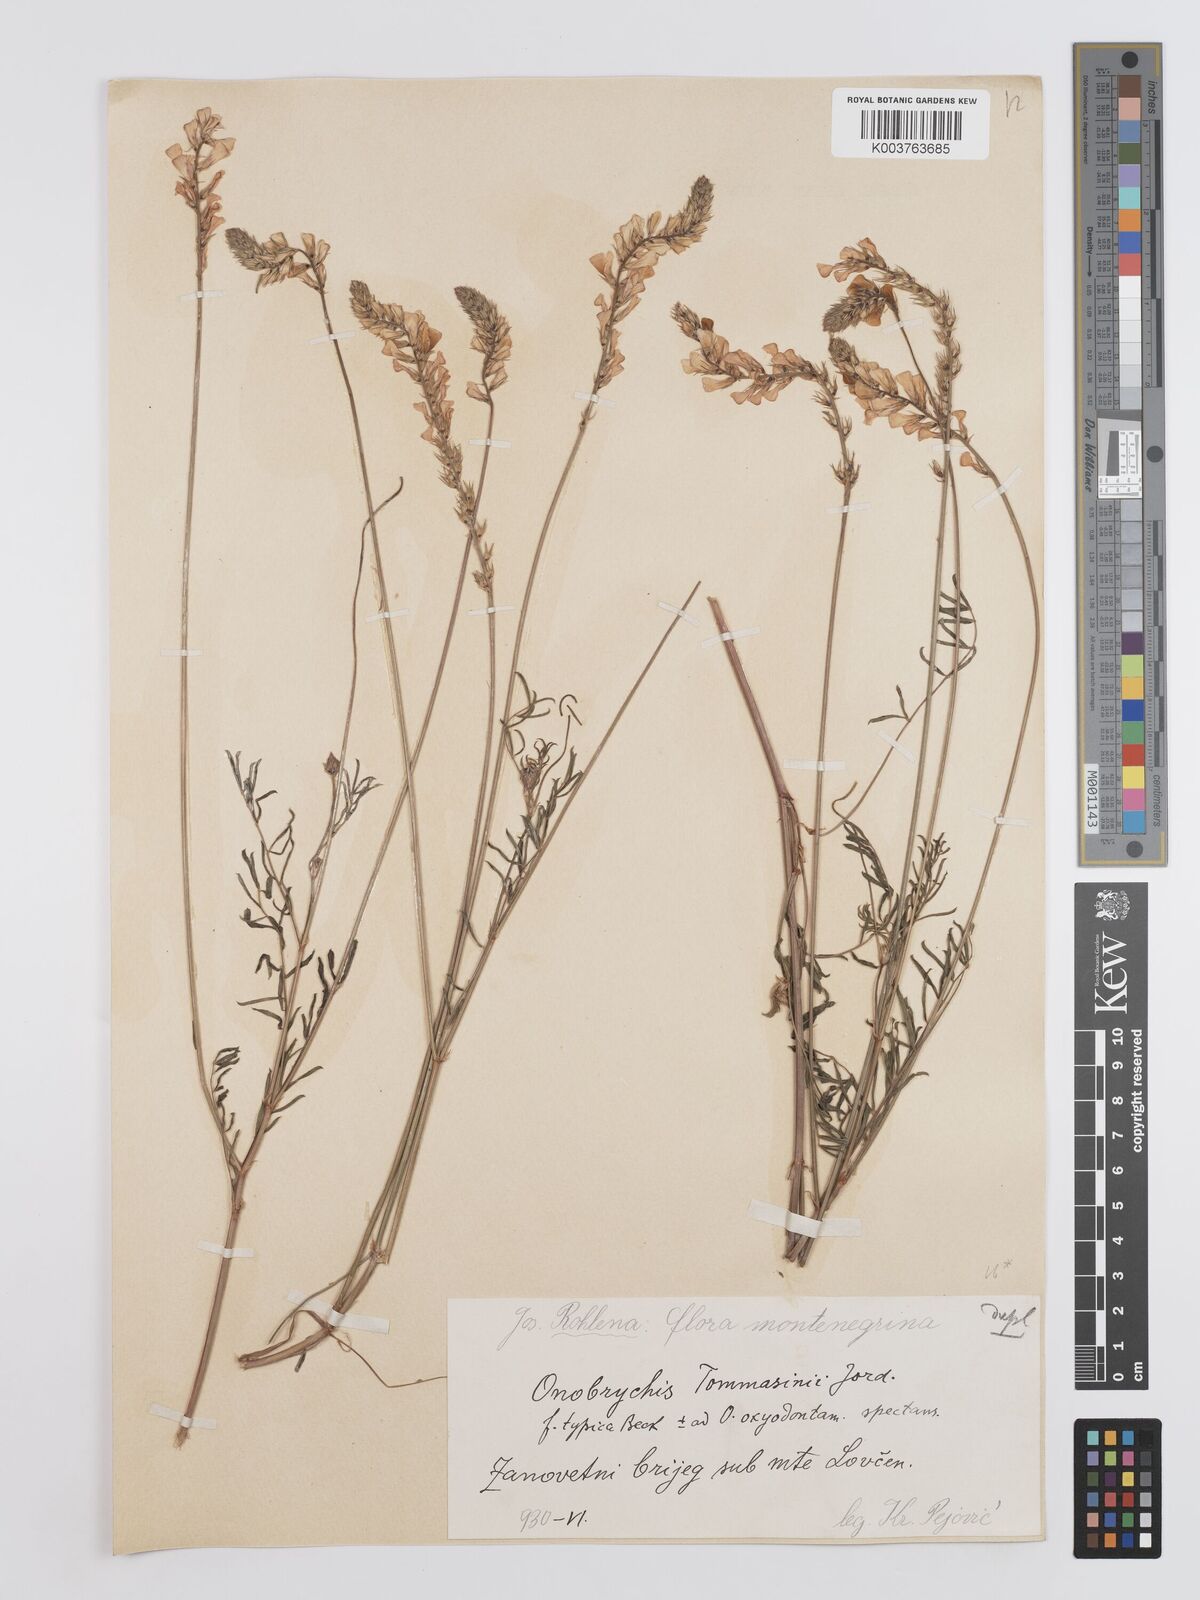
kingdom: Plantae
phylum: Tracheophyta
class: Magnoliopsida
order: Fabales
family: Fabaceae
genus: Onobrychis
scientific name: Onobrychis arenaria
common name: Sand esparcet
